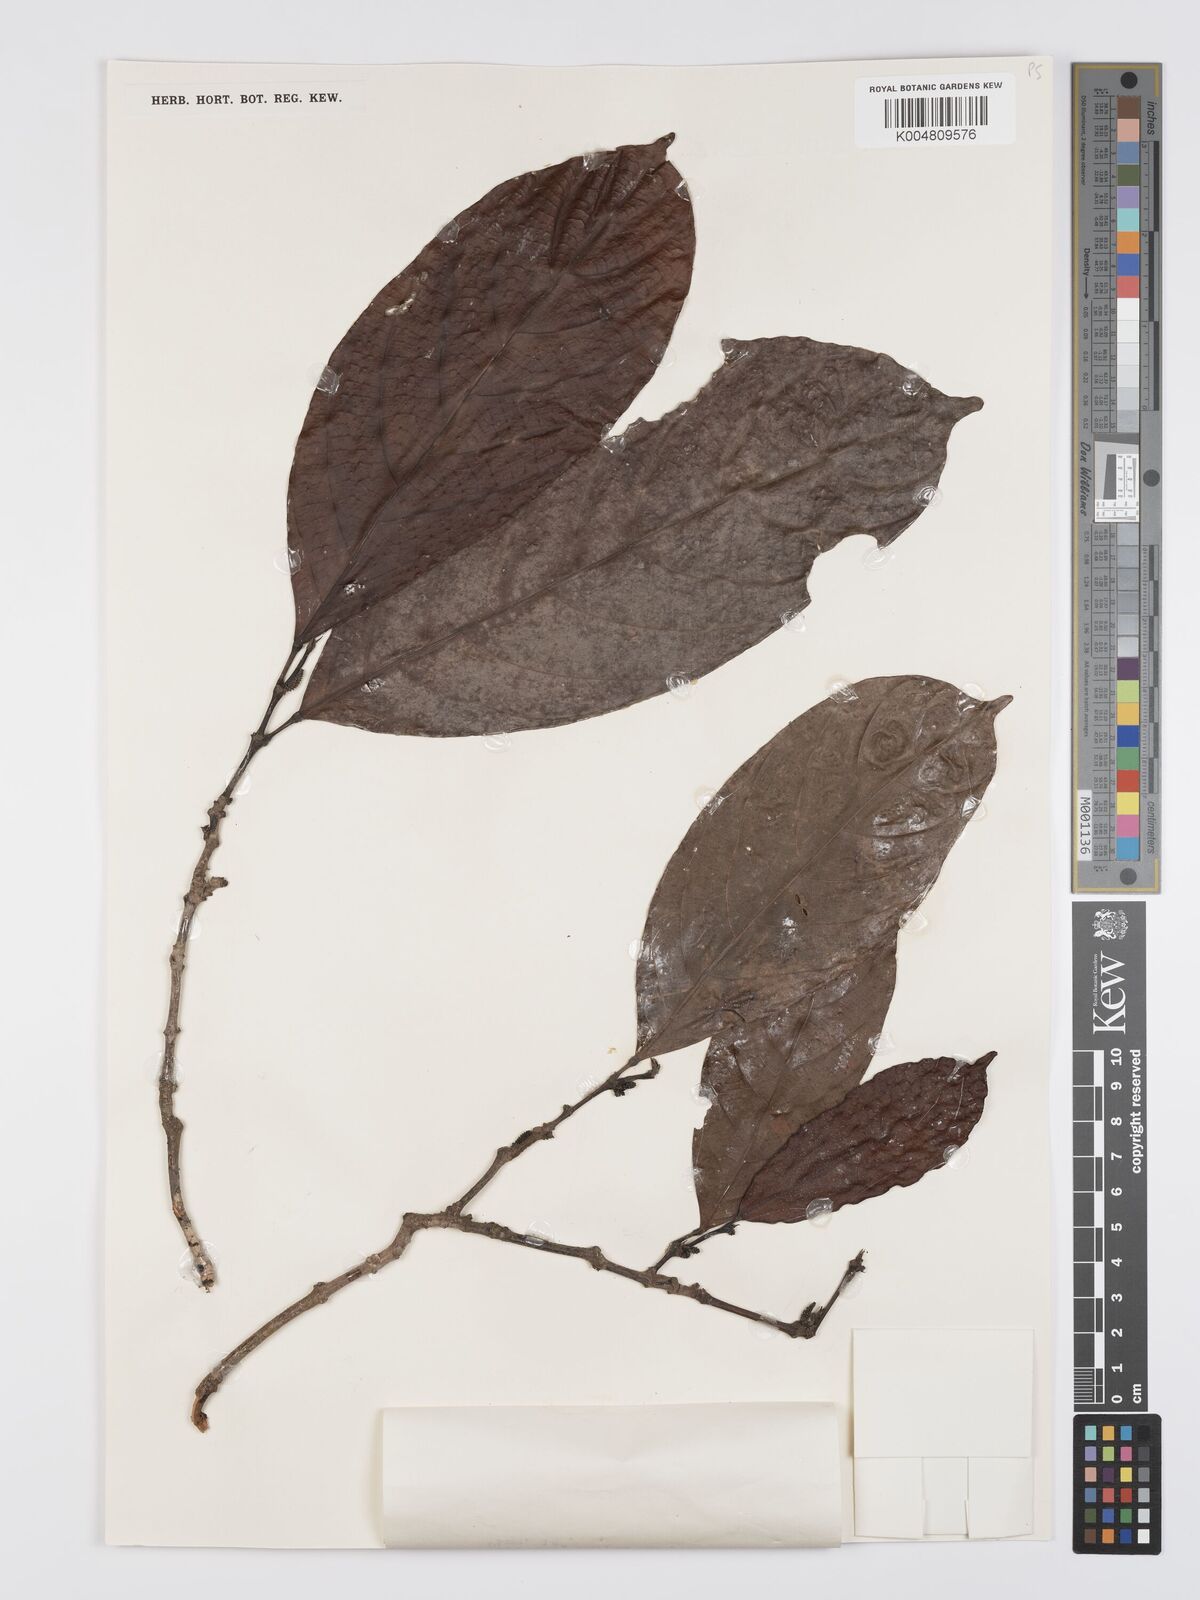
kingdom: Plantae
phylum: Tracheophyta
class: Magnoliopsida
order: Malpighiales
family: Euphorbiaceae
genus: Hancea
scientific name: Hancea penangensis
